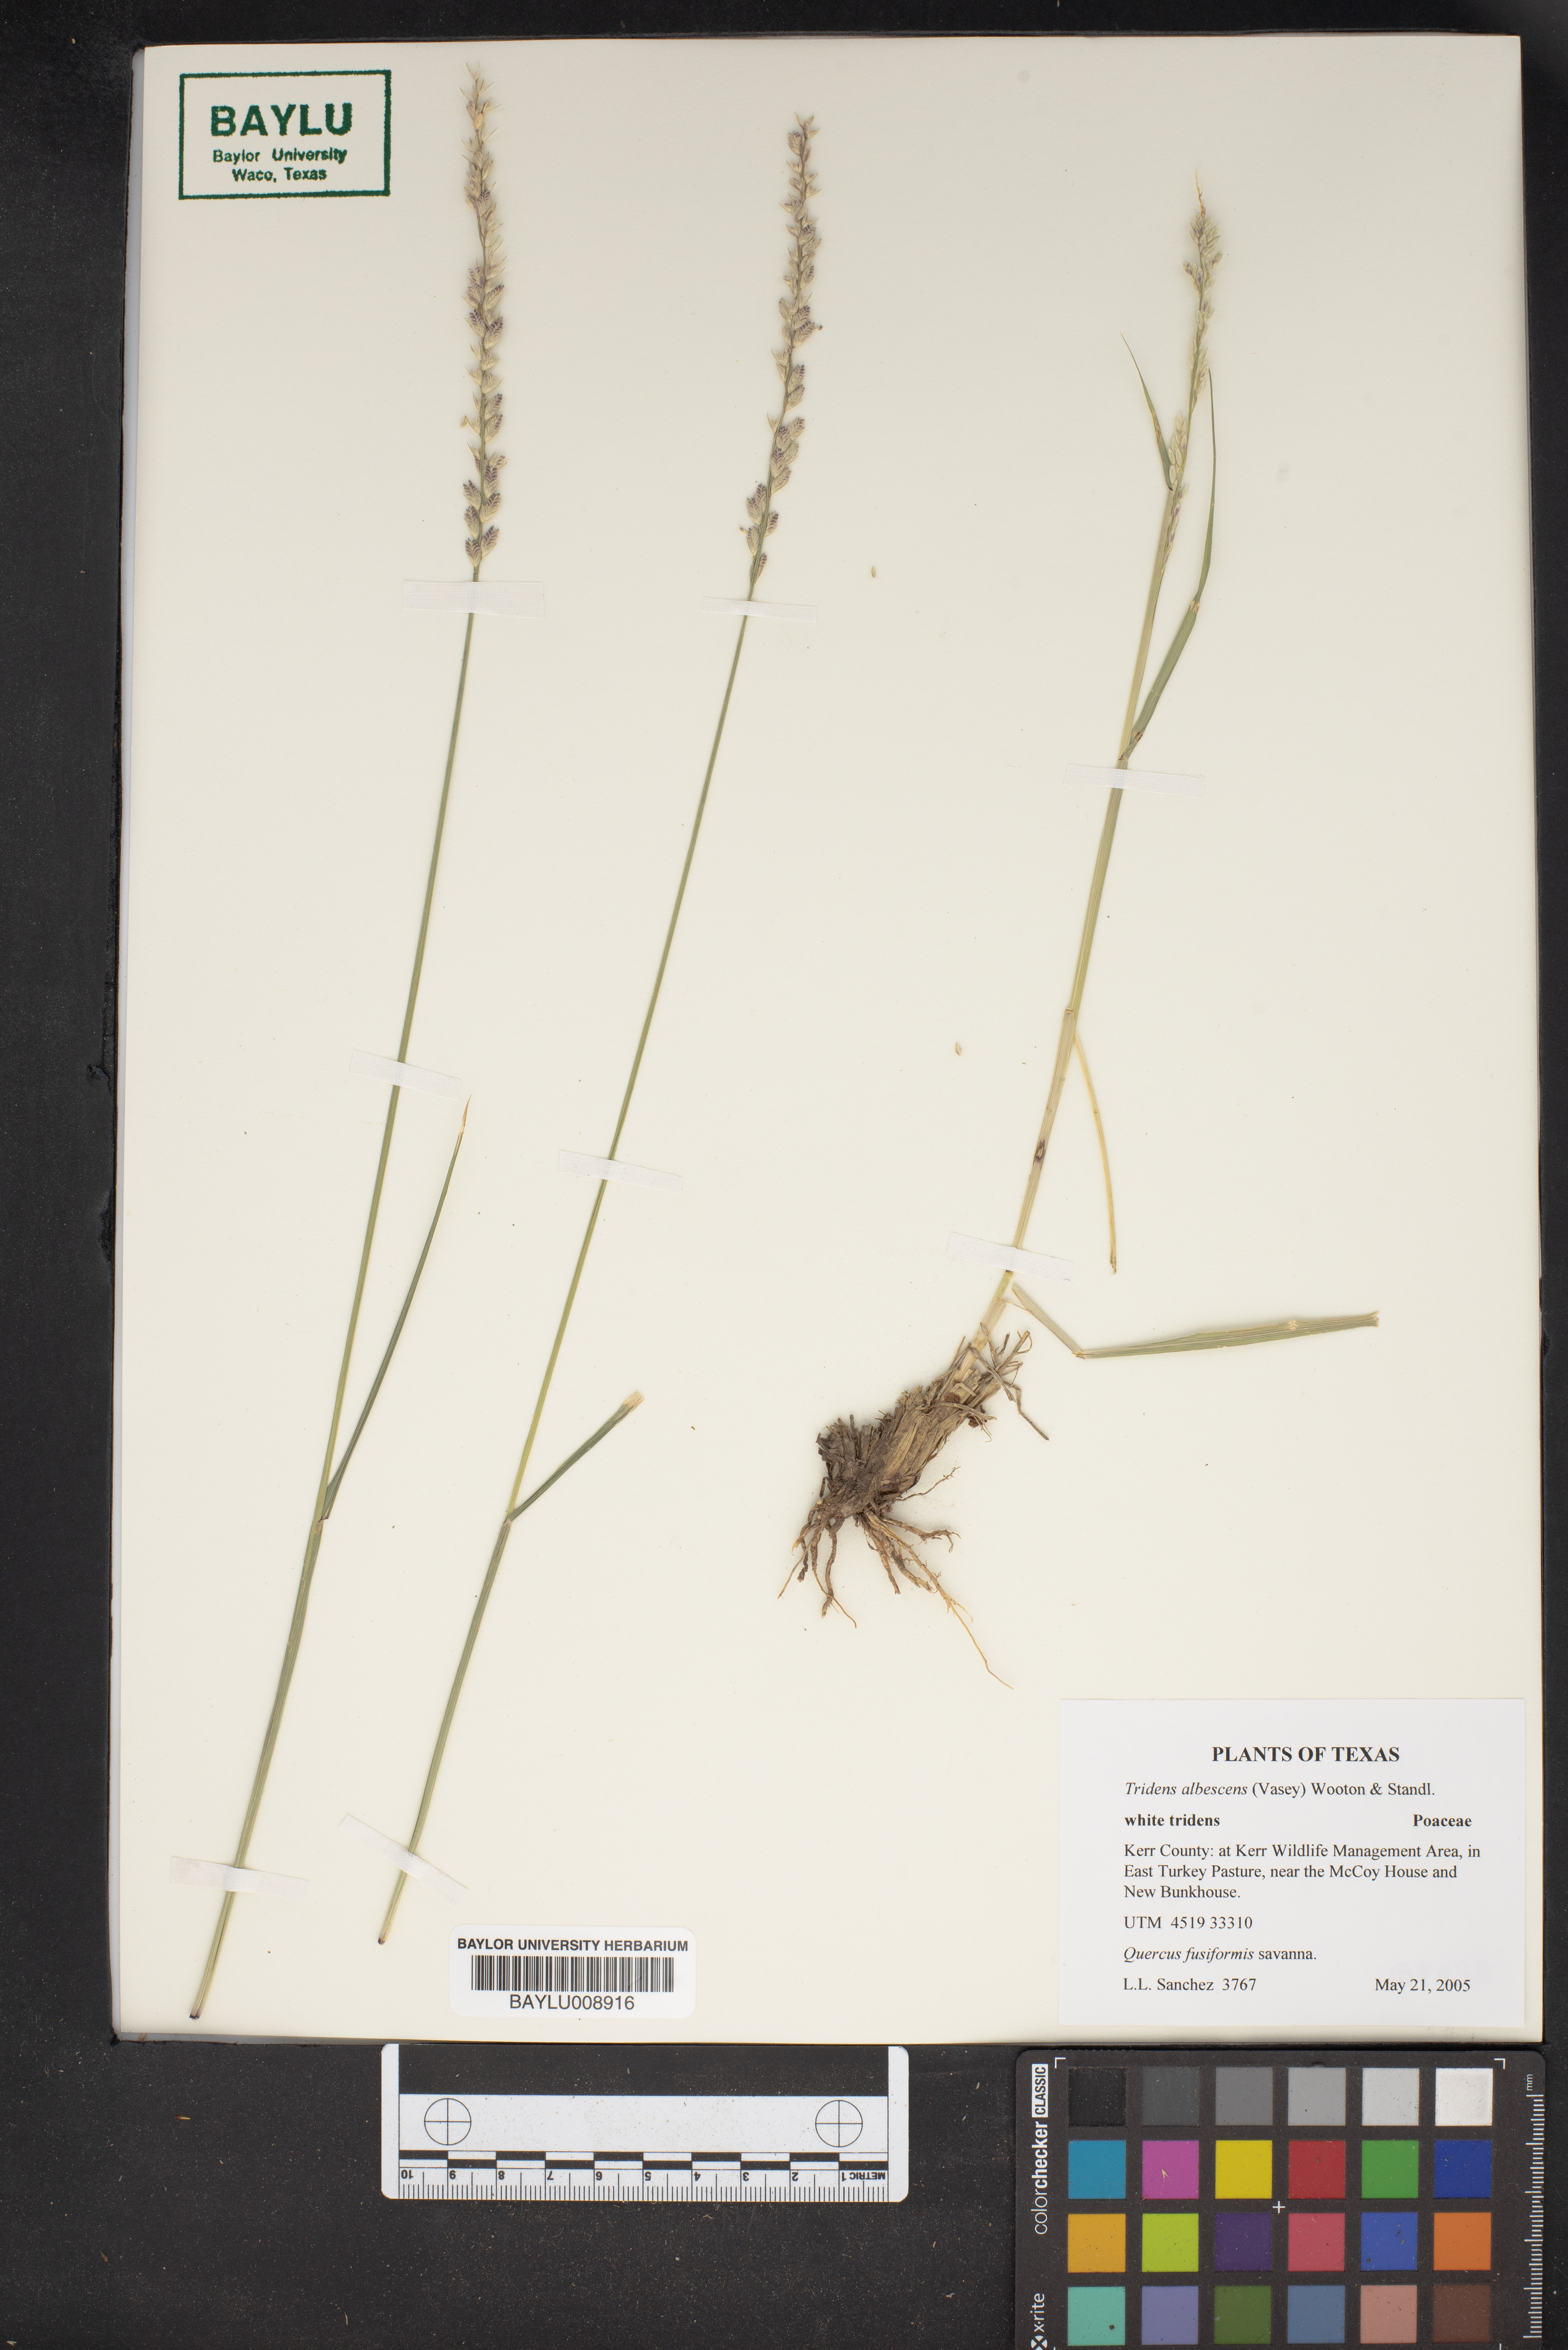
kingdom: Plantae
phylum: Tracheophyta
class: Liliopsida
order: Poales
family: Poaceae
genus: Tridens
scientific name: Tridens albescens
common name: White tridens
